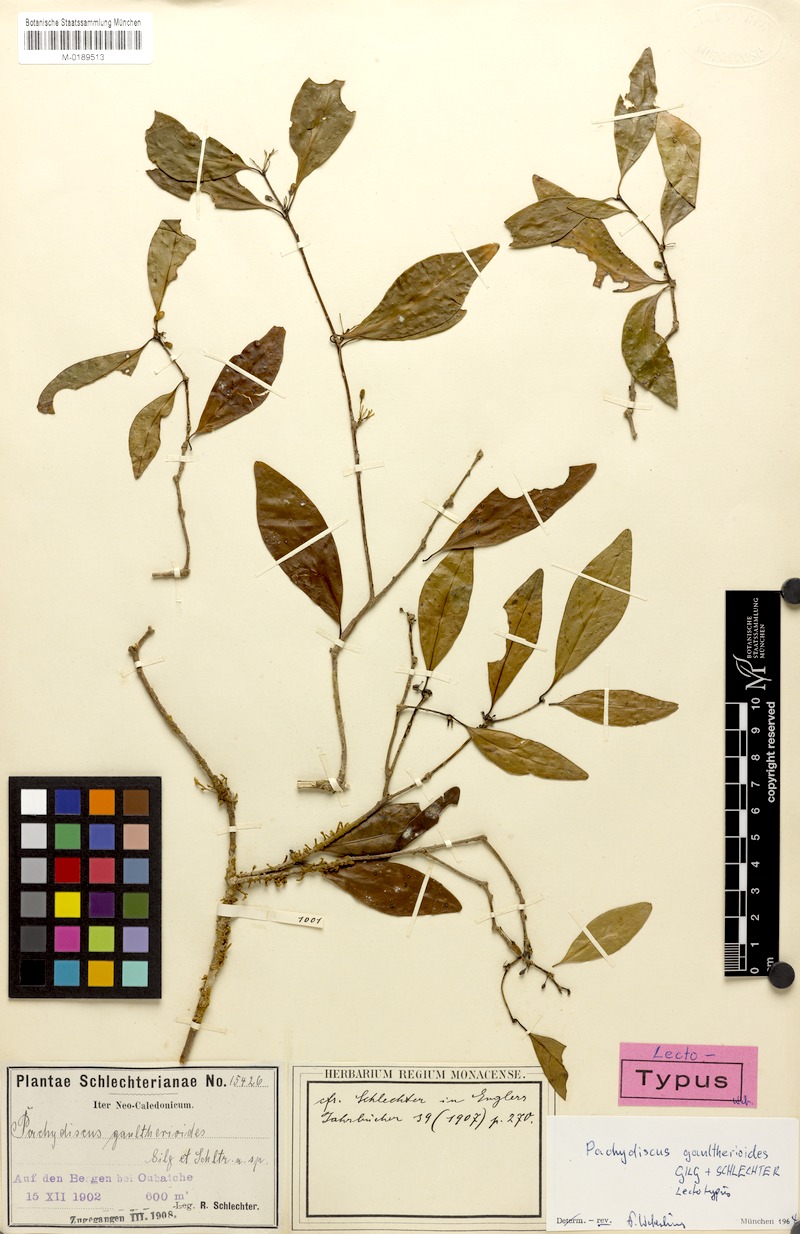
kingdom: Plantae
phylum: Tracheophyta
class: Magnoliopsida
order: Asterales
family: Alseuosmiaceae
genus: Periomphale
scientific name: Periomphale balansae
